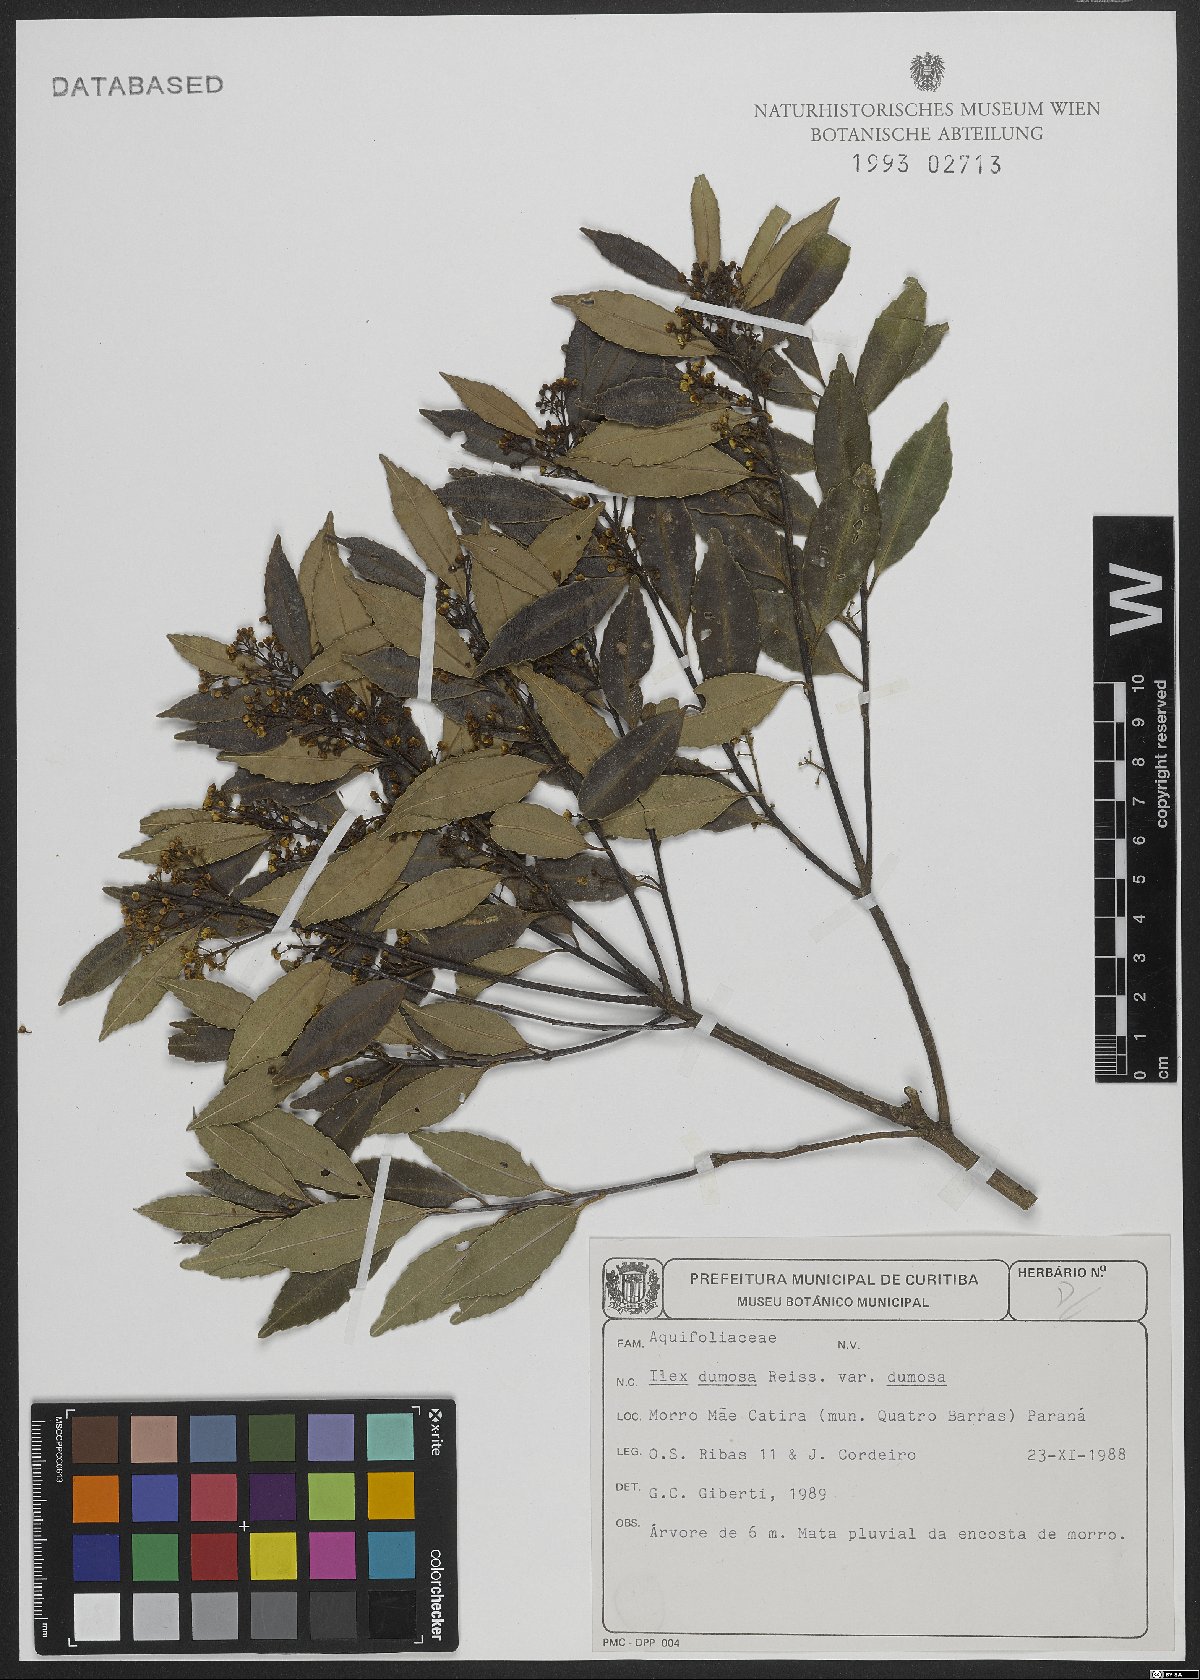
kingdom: Plantae
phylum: Tracheophyta
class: Magnoliopsida
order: Aquifoliales
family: Aquifoliaceae
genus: Ilex
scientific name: Ilex dumosa
